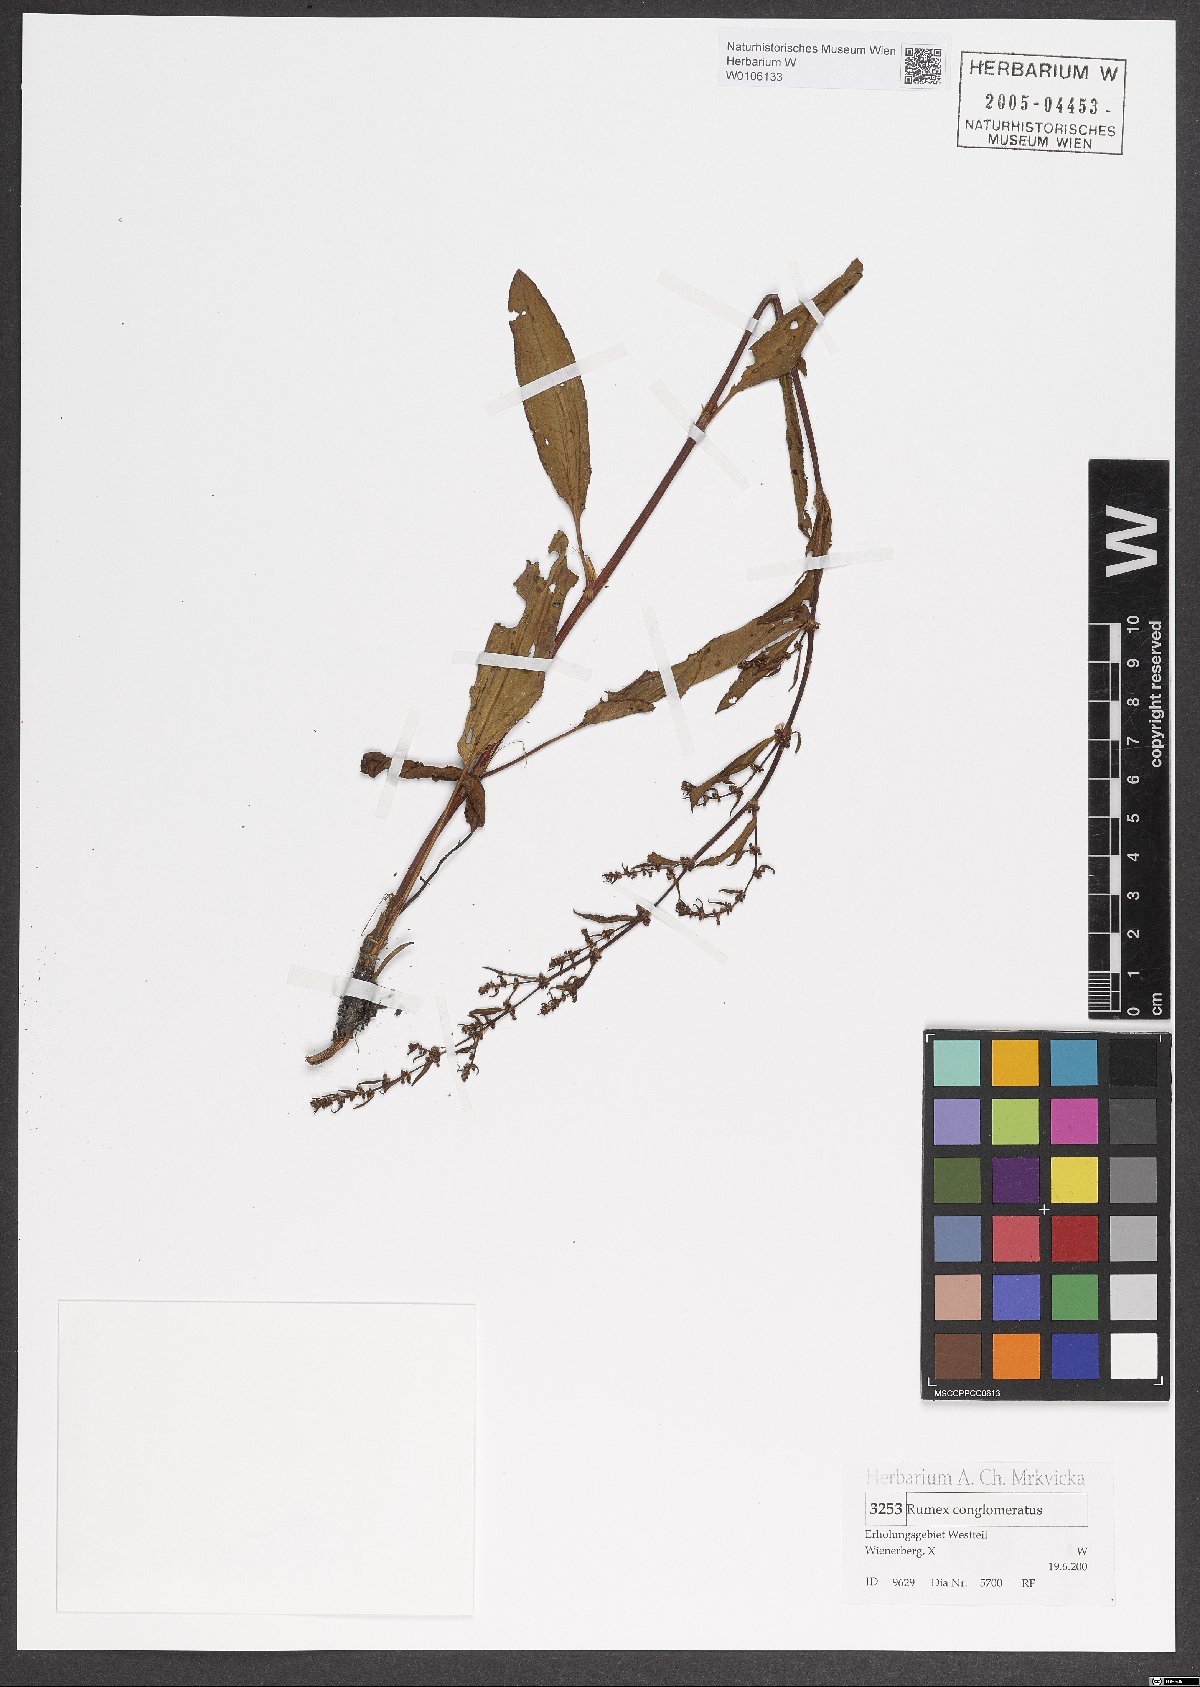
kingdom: Plantae
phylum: Tracheophyta
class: Magnoliopsida
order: Caryophyllales
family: Polygonaceae
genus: Rumex
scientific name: Rumex conglomeratus
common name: Clustered dock
